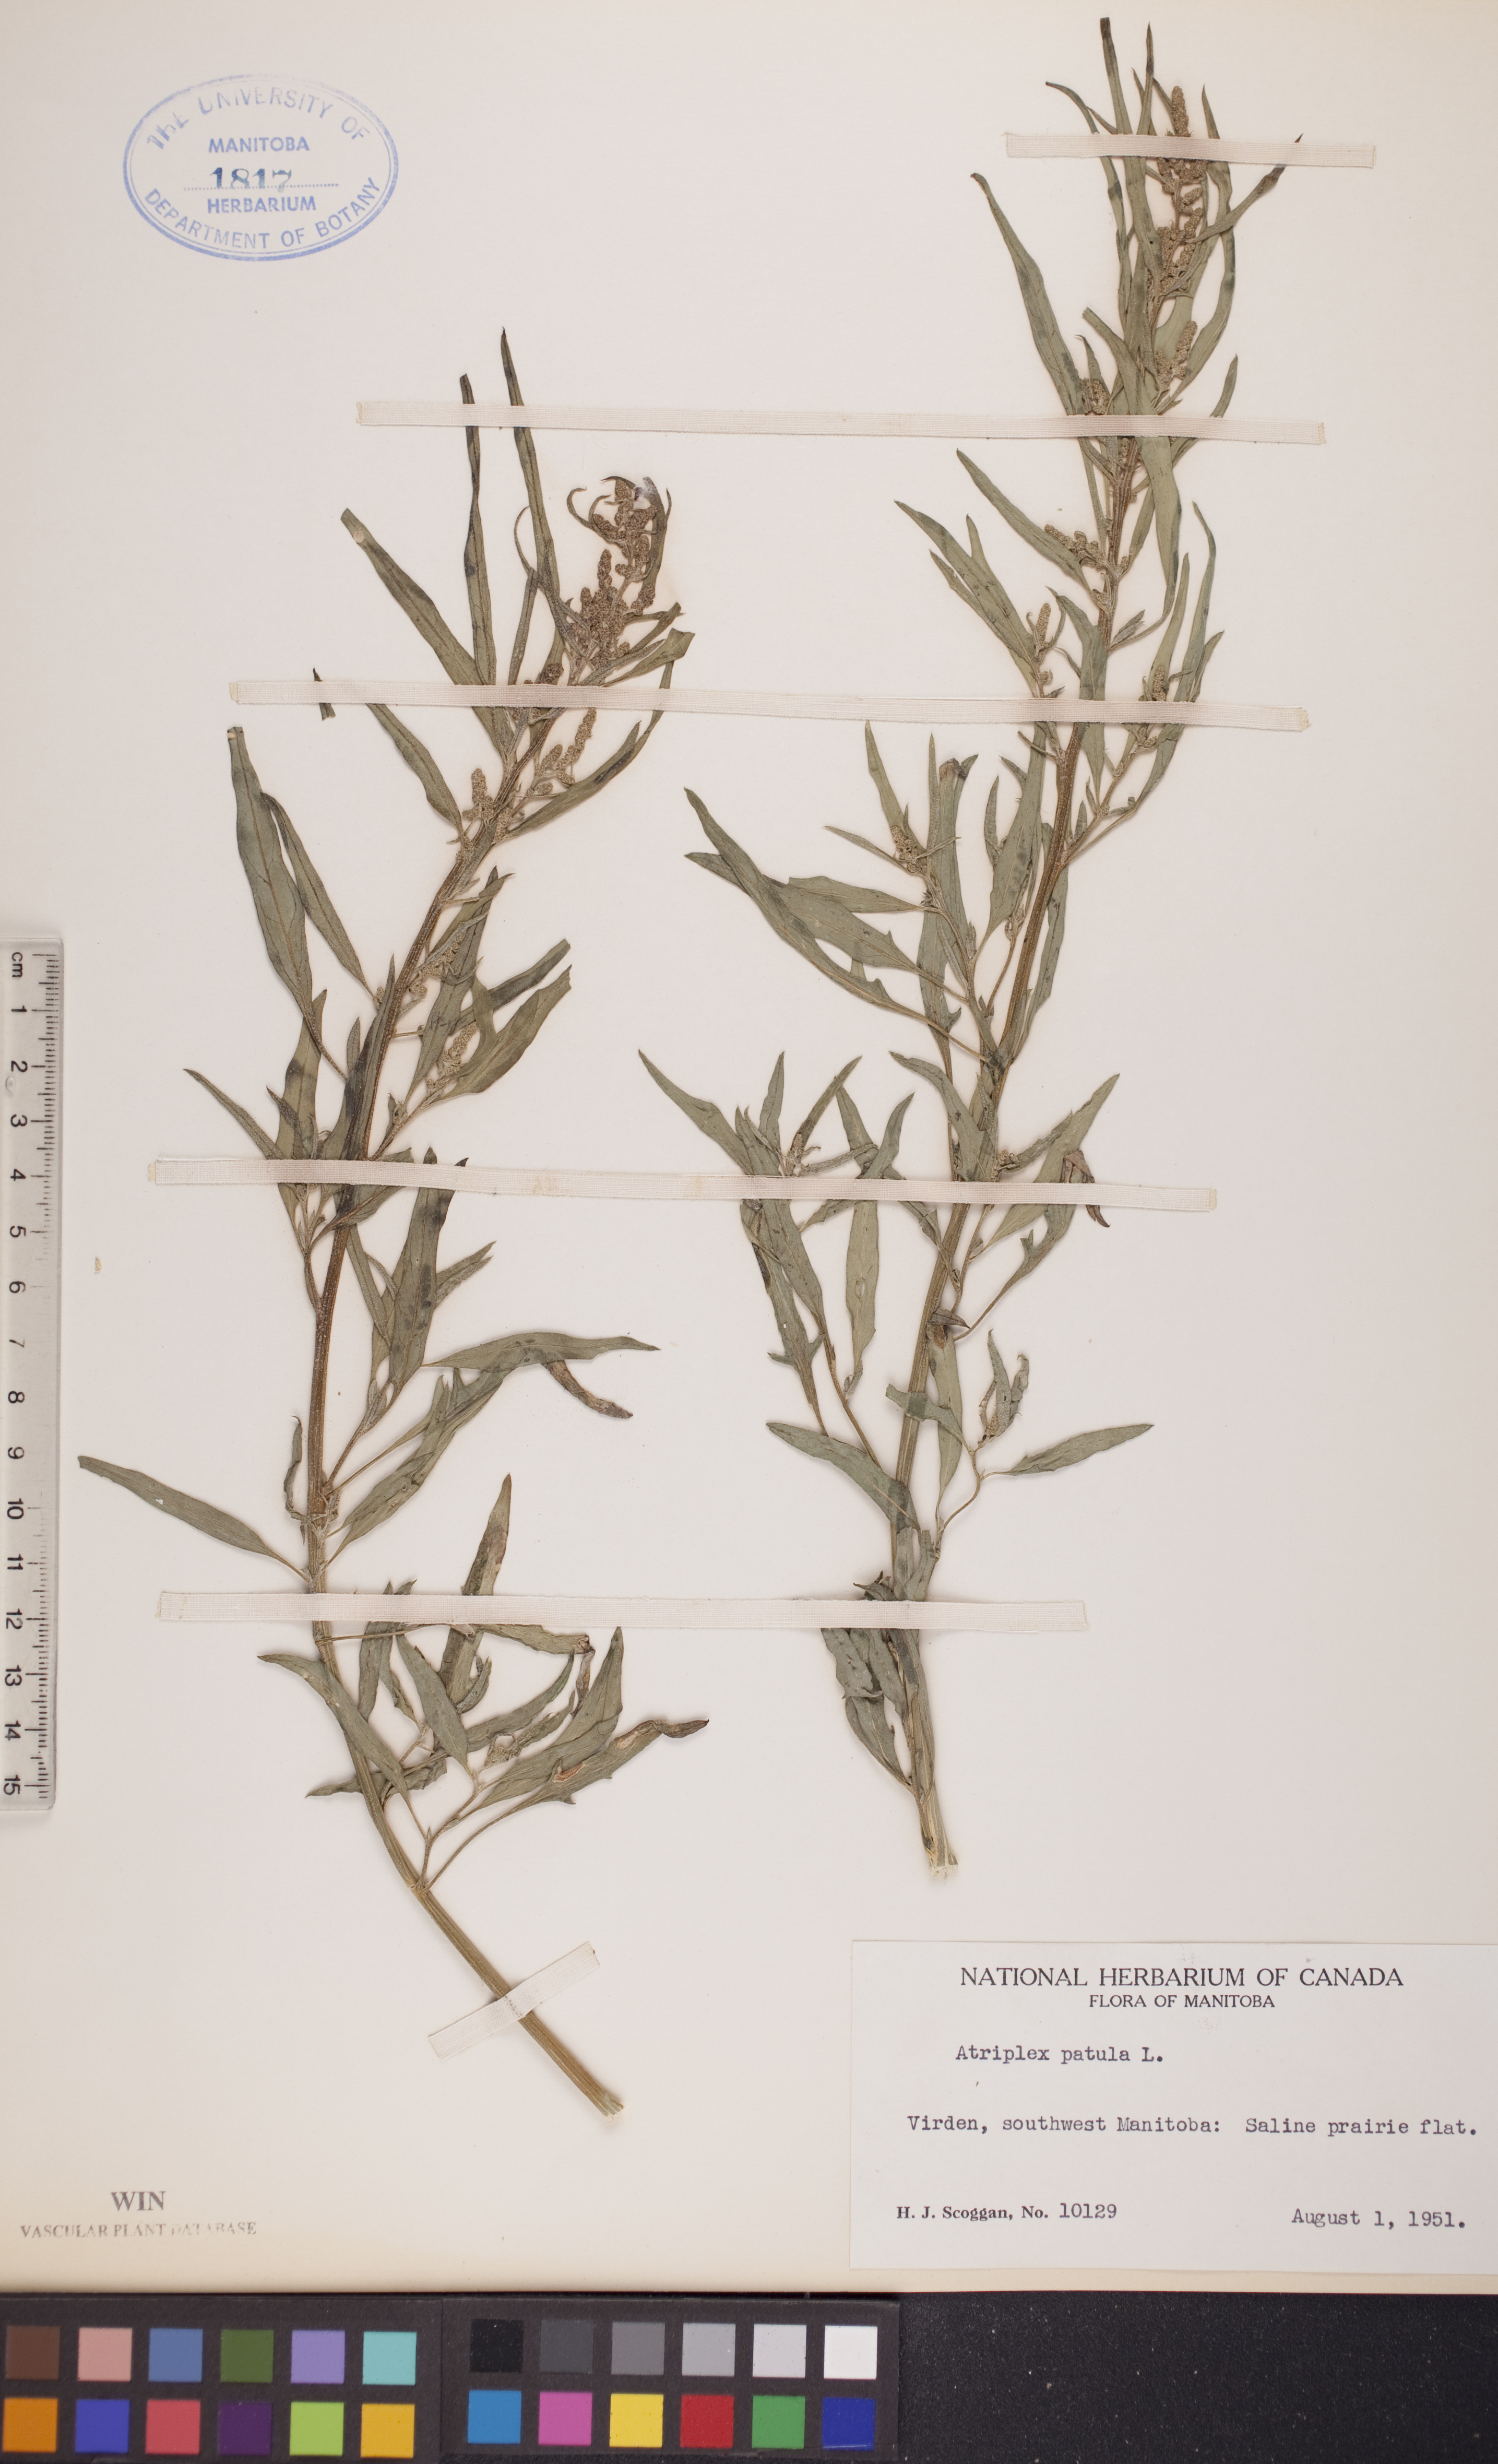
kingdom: Plantae
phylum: Tracheophyta
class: Magnoliopsida
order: Caryophyllales
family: Amaranthaceae
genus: Atriplex
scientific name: Atriplex patula
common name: Common orache
